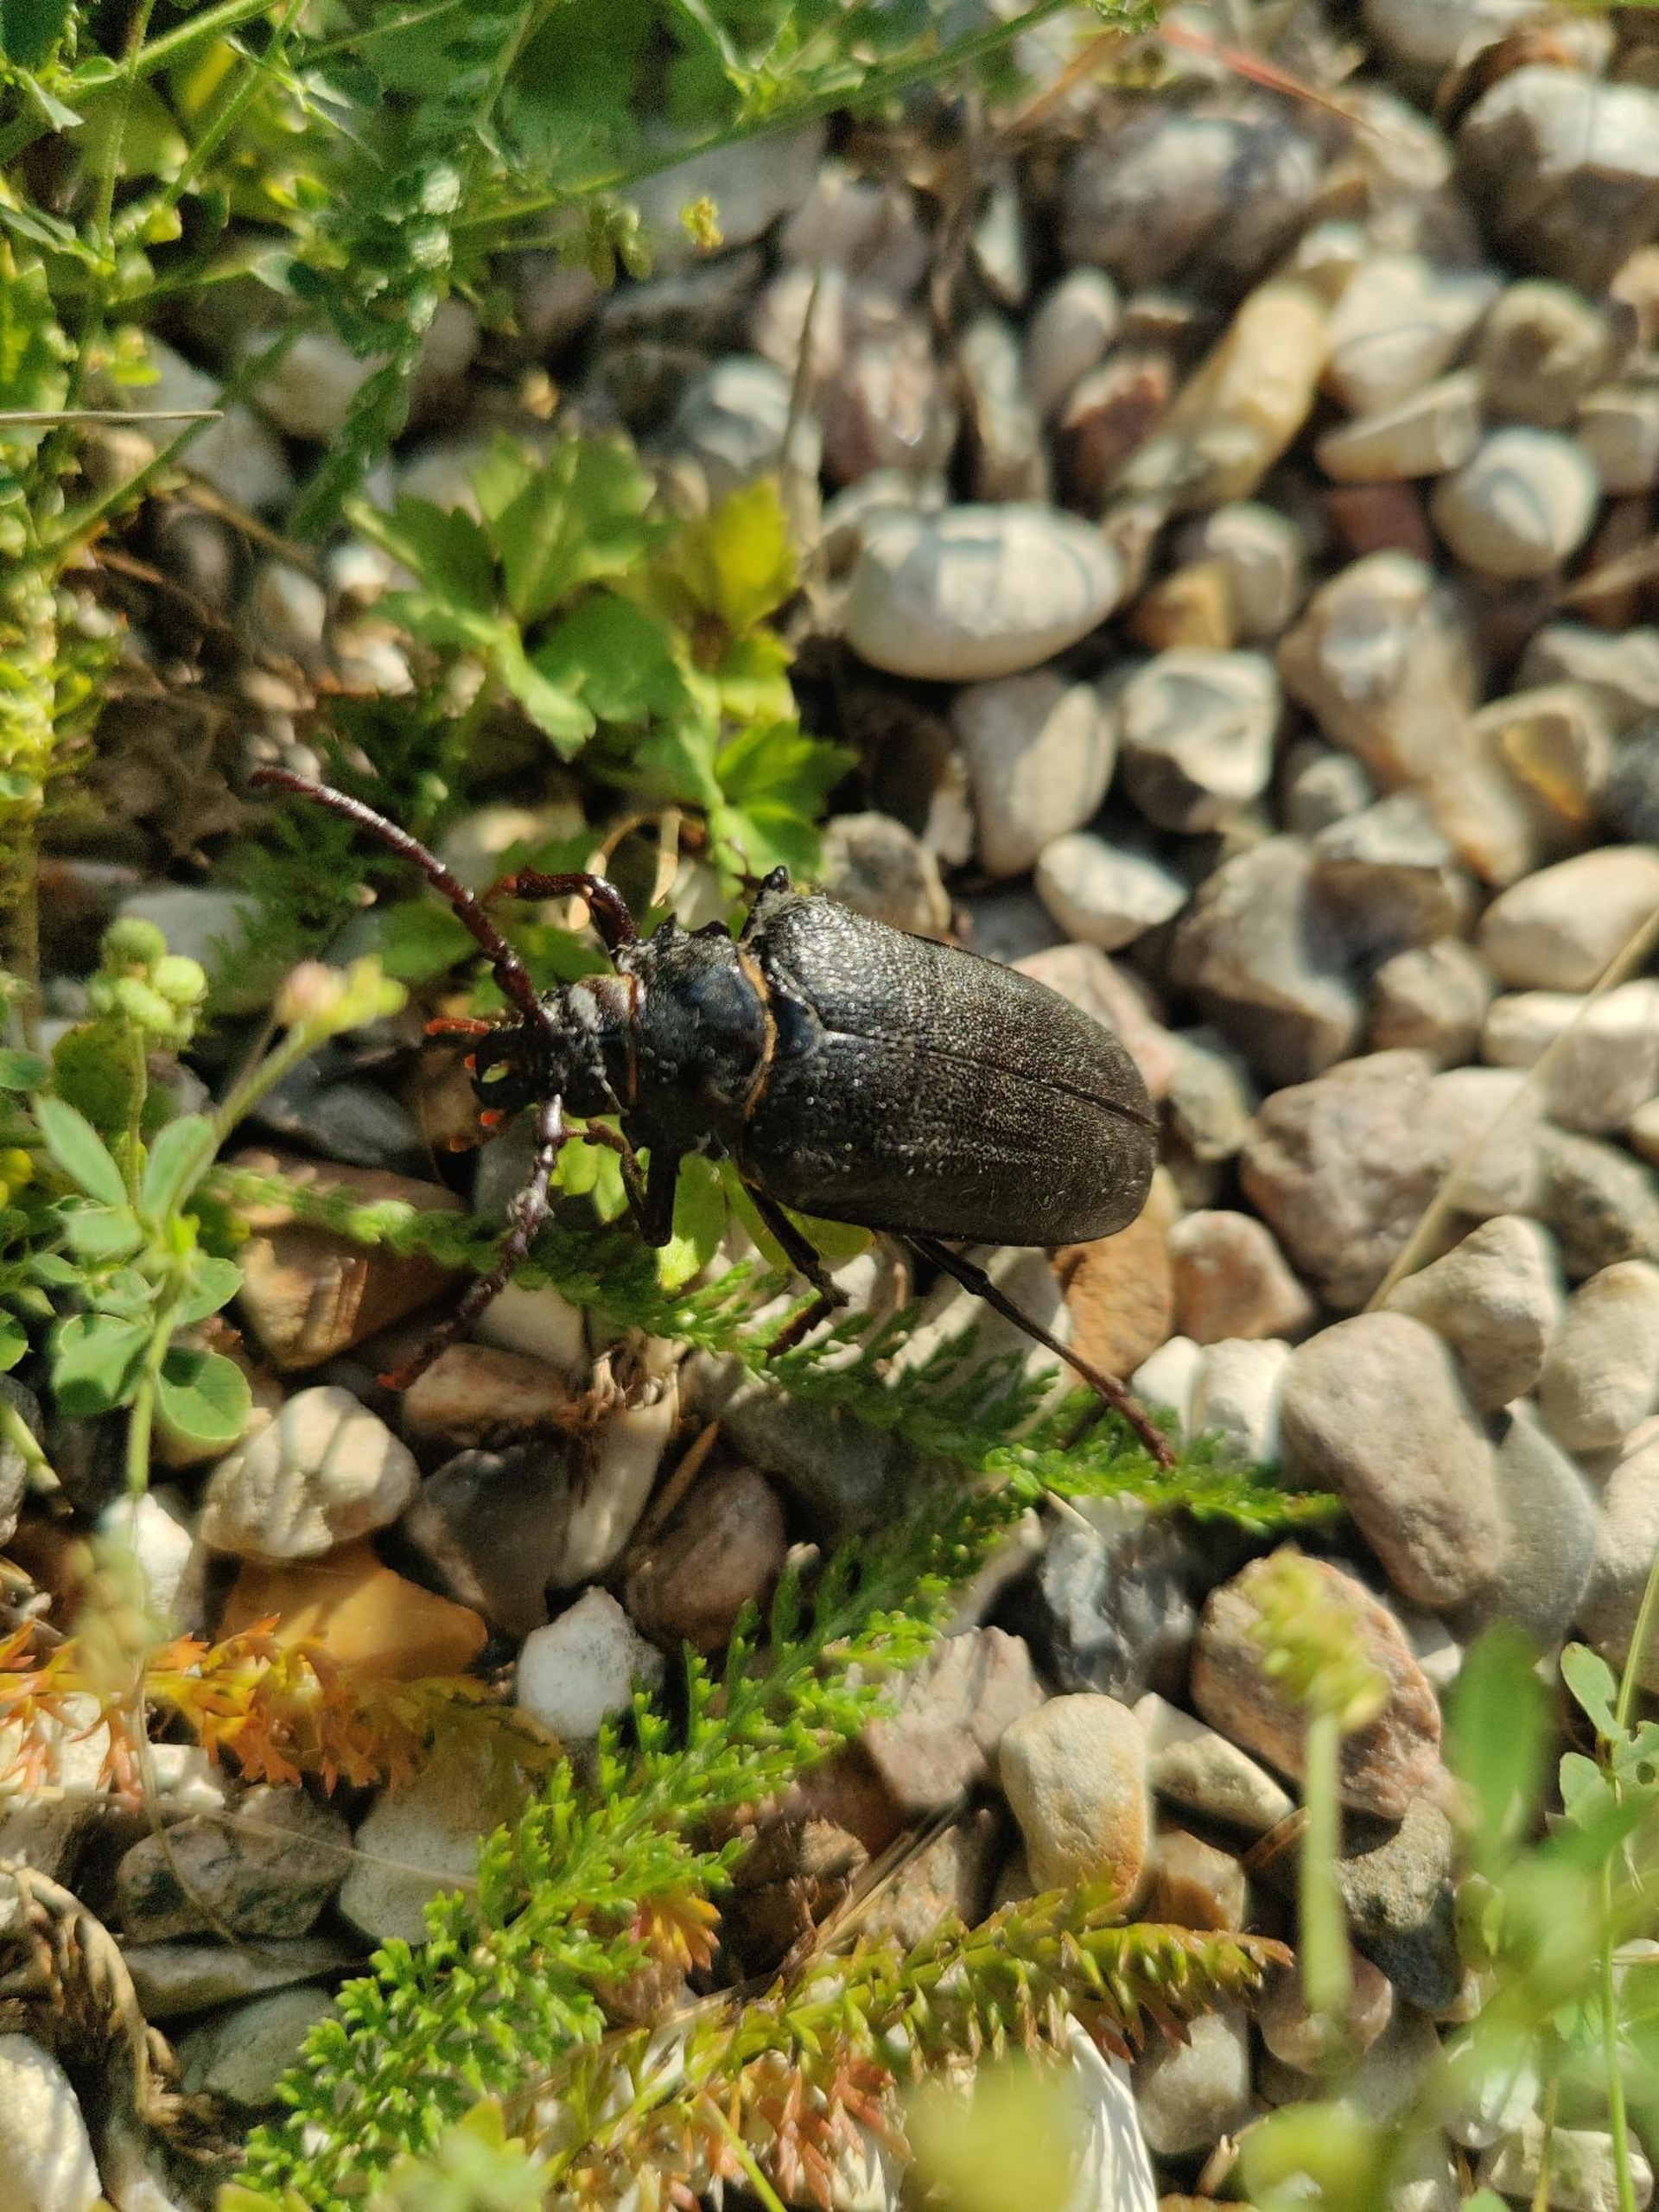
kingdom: Animalia
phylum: Arthropoda
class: Insecta
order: Coleoptera
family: Cerambycidae
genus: Prionus
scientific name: Prionus coriarius
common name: Garver
